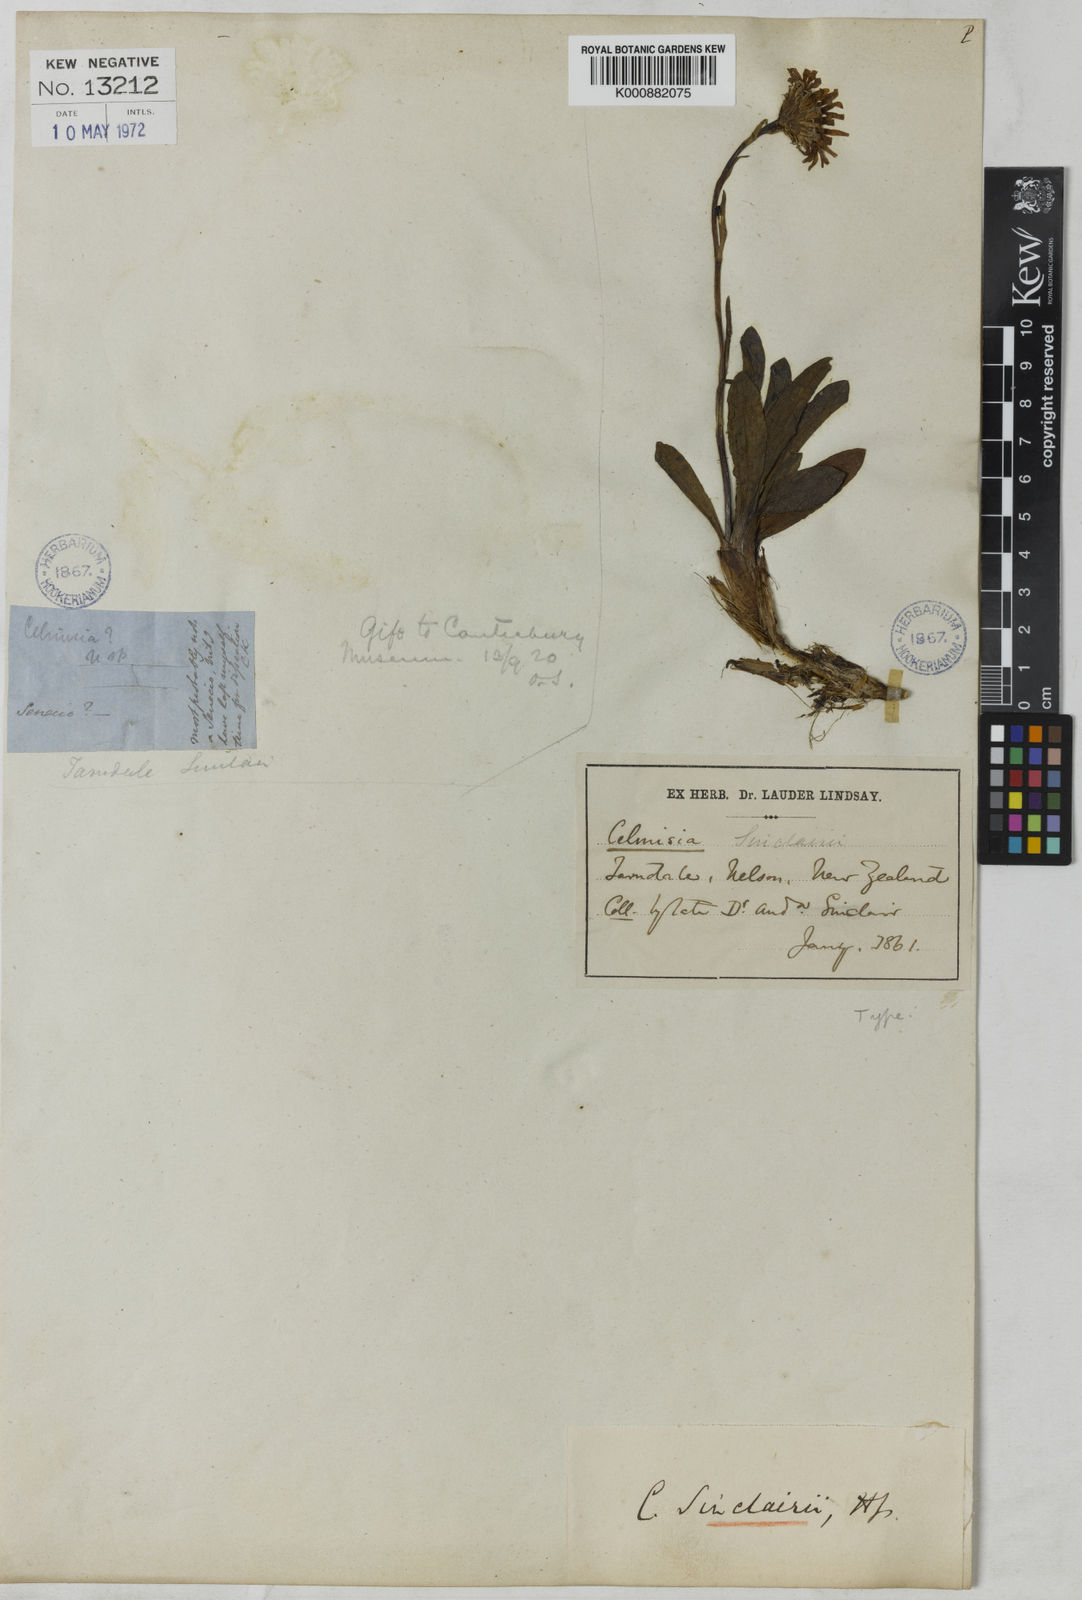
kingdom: Plantae
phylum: Tracheophyta
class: Magnoliopsida
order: Asterales
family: Asteraceae
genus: Celmisia
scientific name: Celmisia sinclairii
